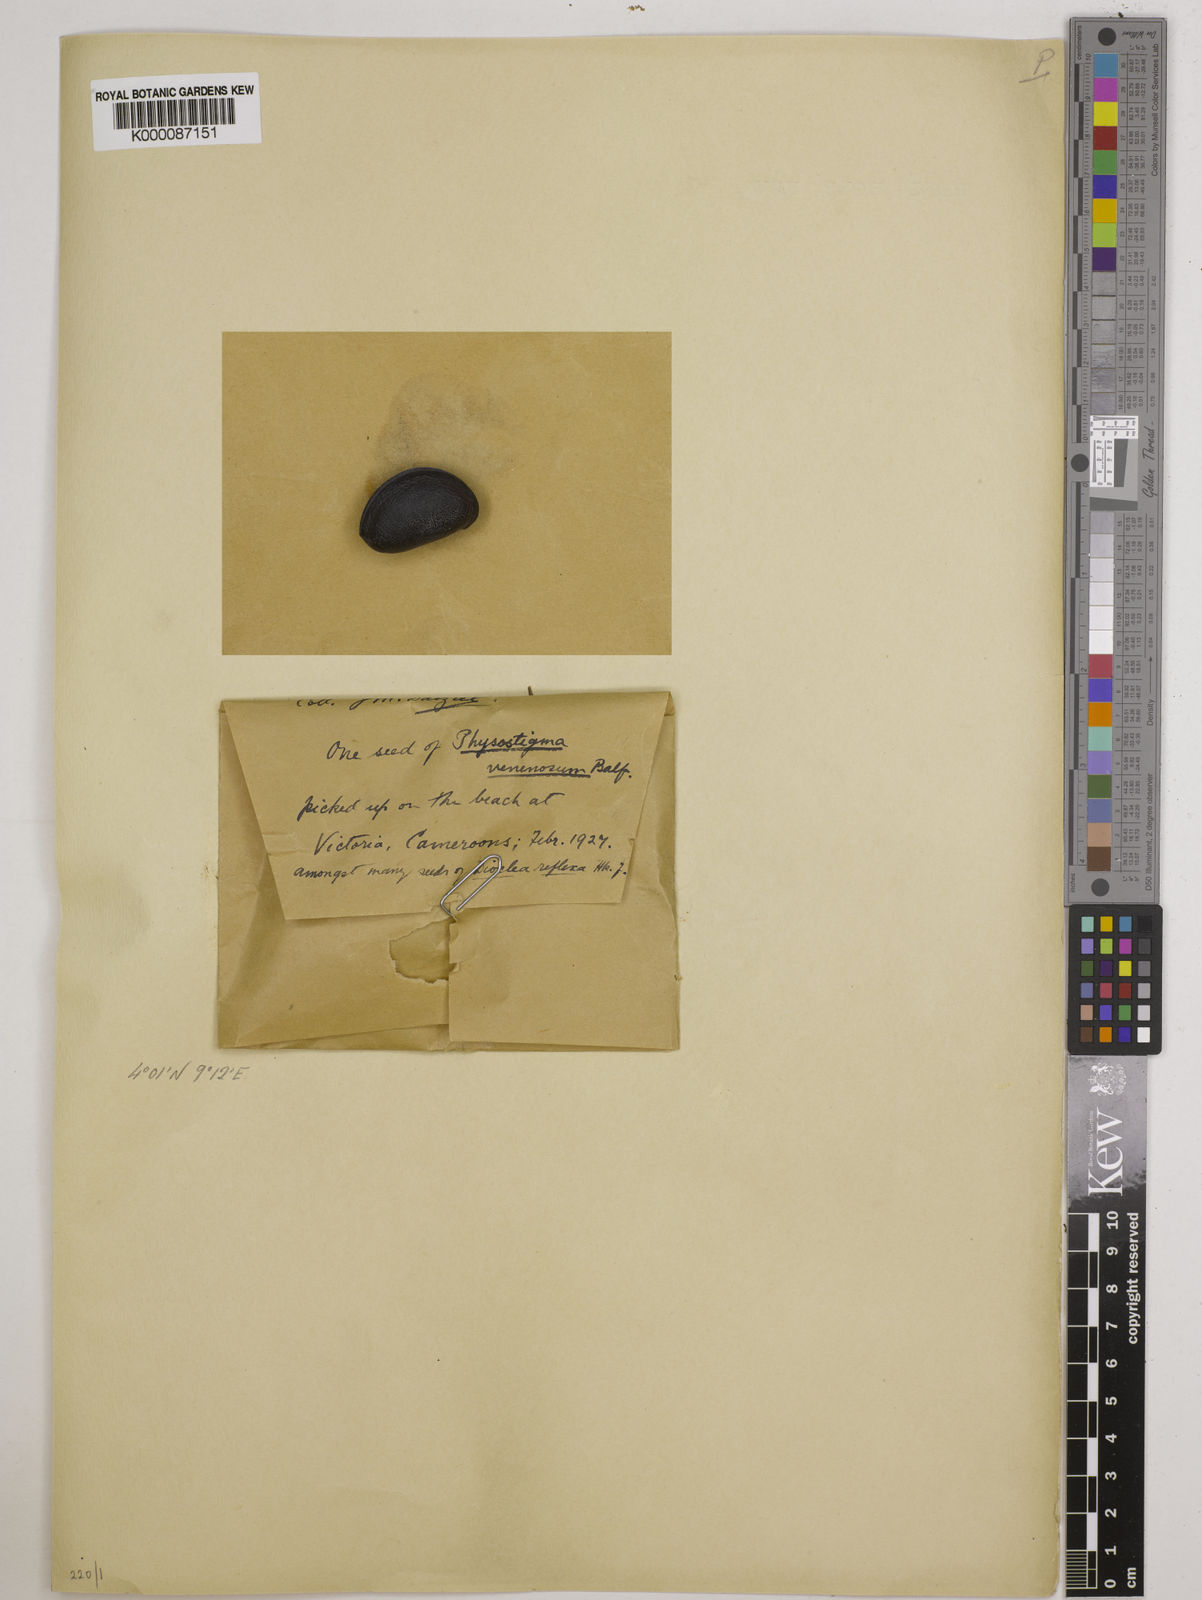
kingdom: Plantae
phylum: Tracheophyta
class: Magnoliopsida
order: Fabales
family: Fabaceae
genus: Physostigma
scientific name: Physostigma venenosum
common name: Calabar-bean
